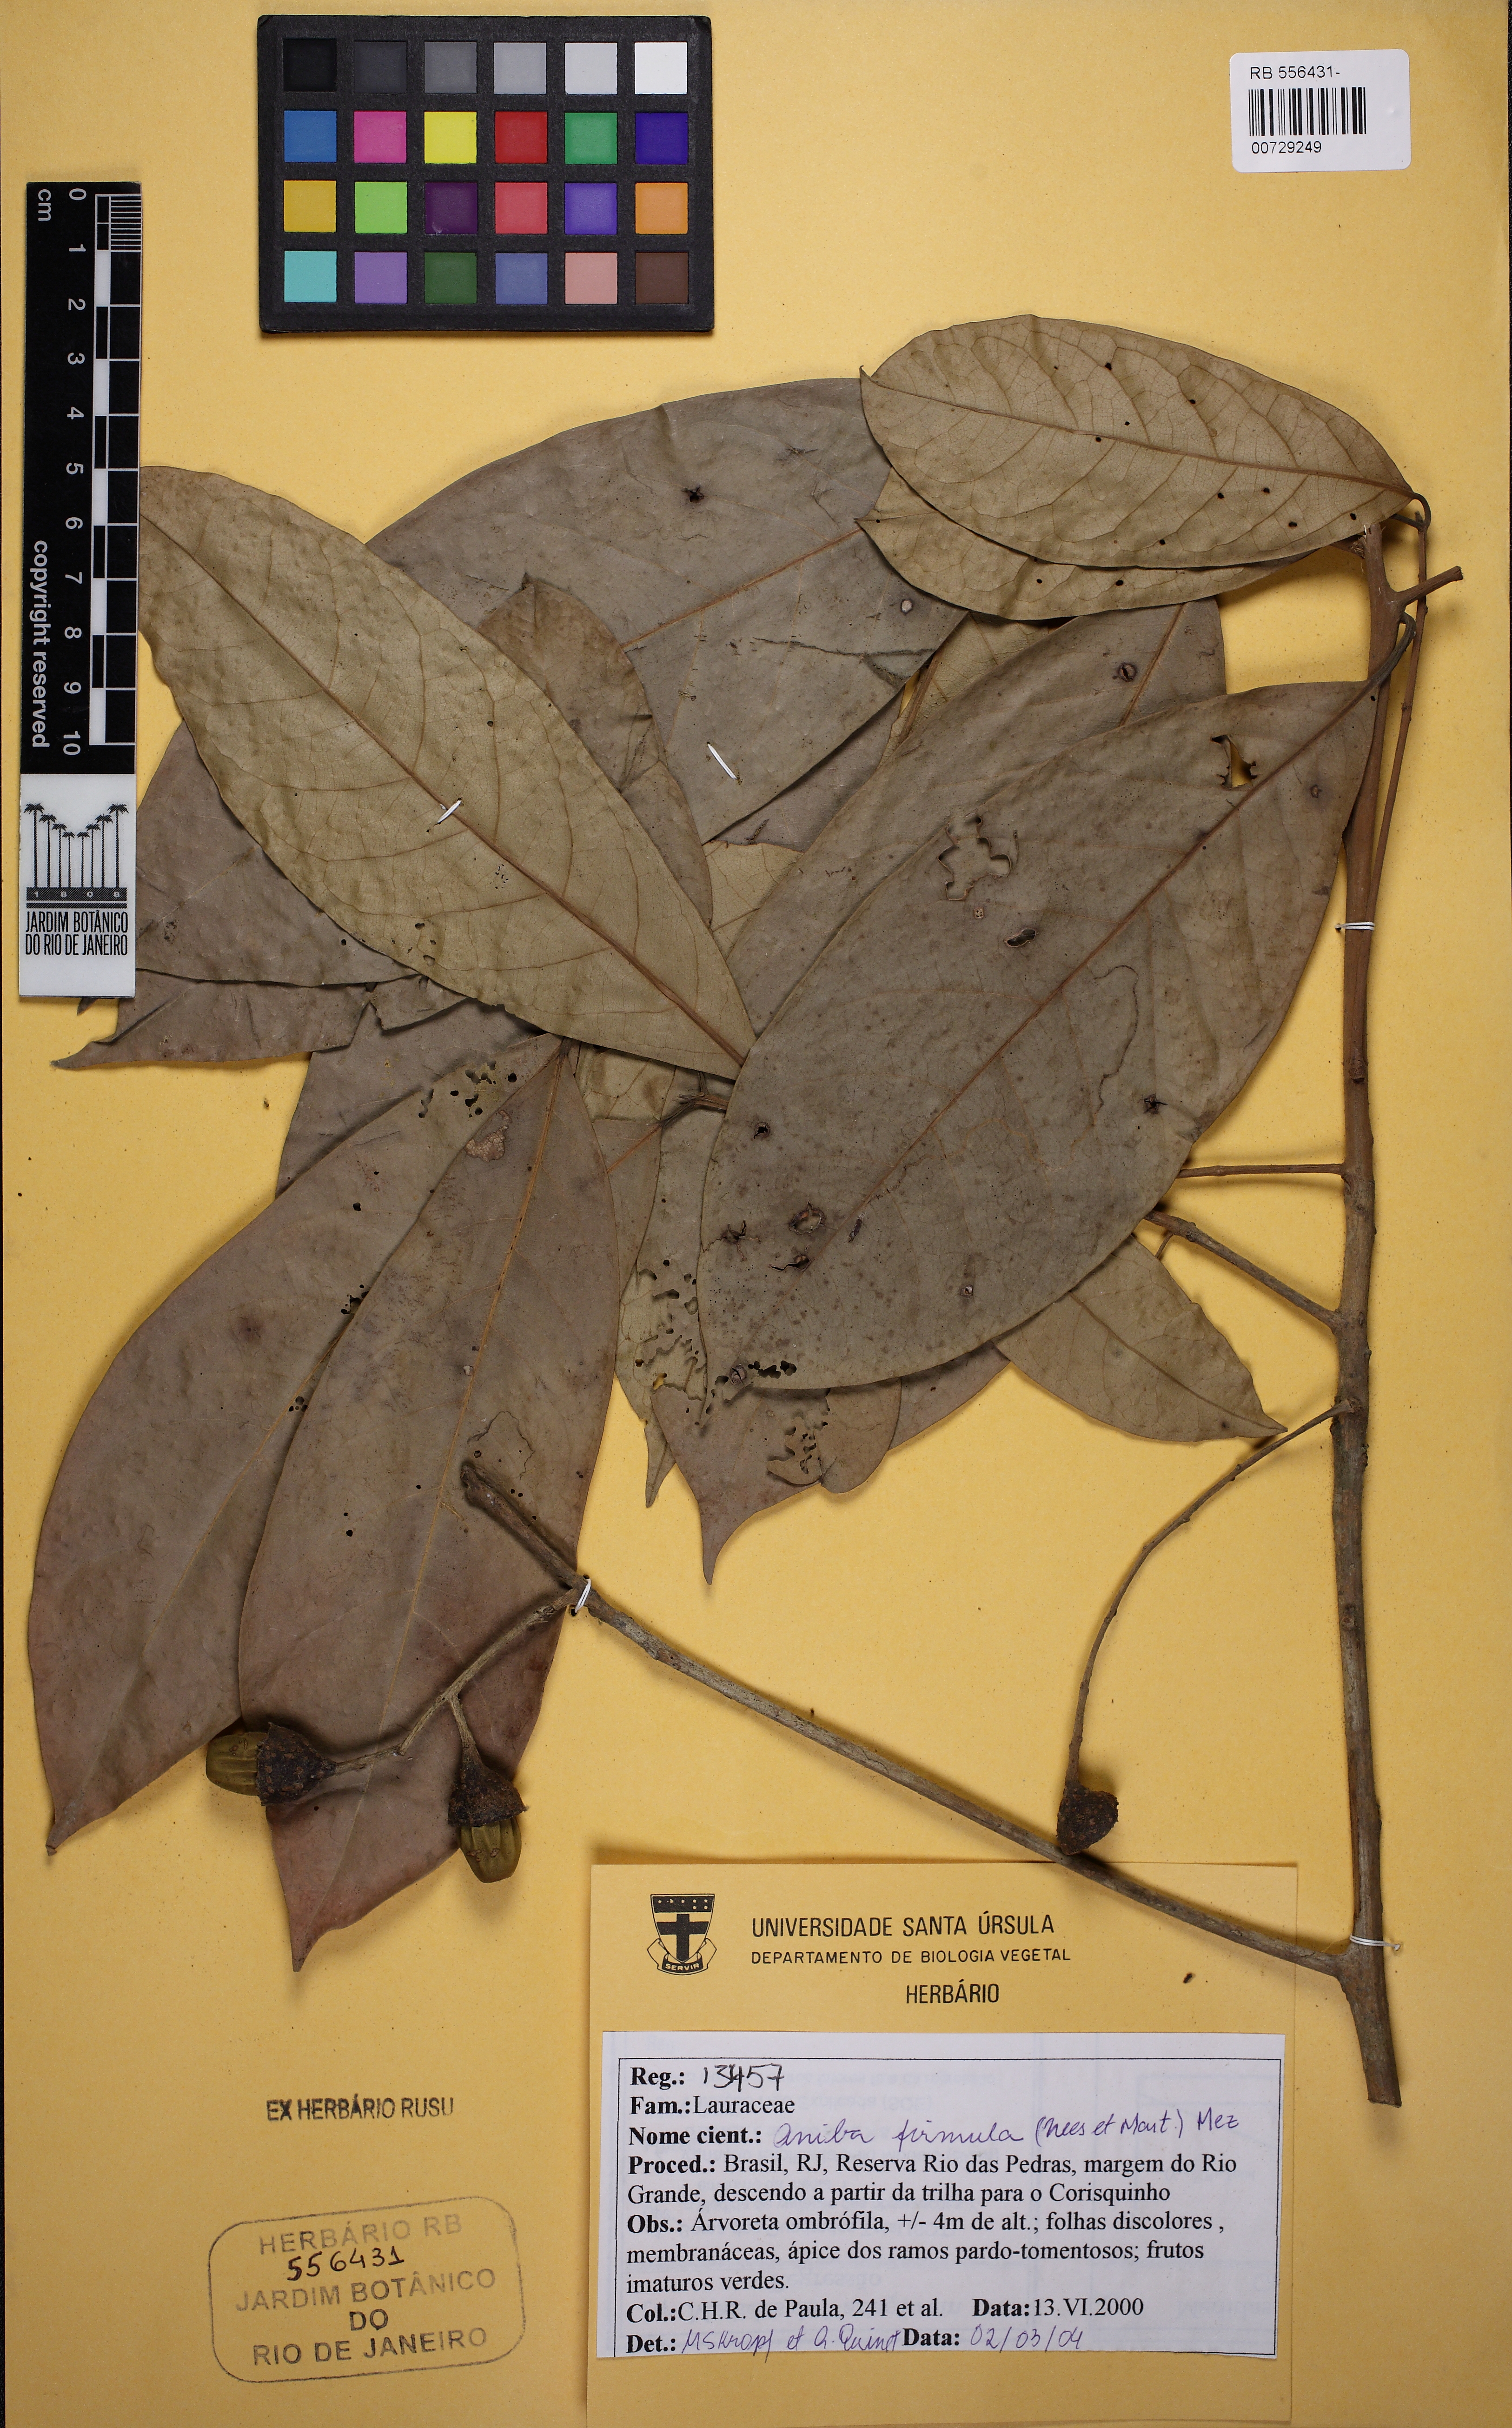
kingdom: Plantae
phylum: Tracheophyta
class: Magnoliopsida
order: Laurales
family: Lauraceae
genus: Aniba
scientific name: Aniba firmula
